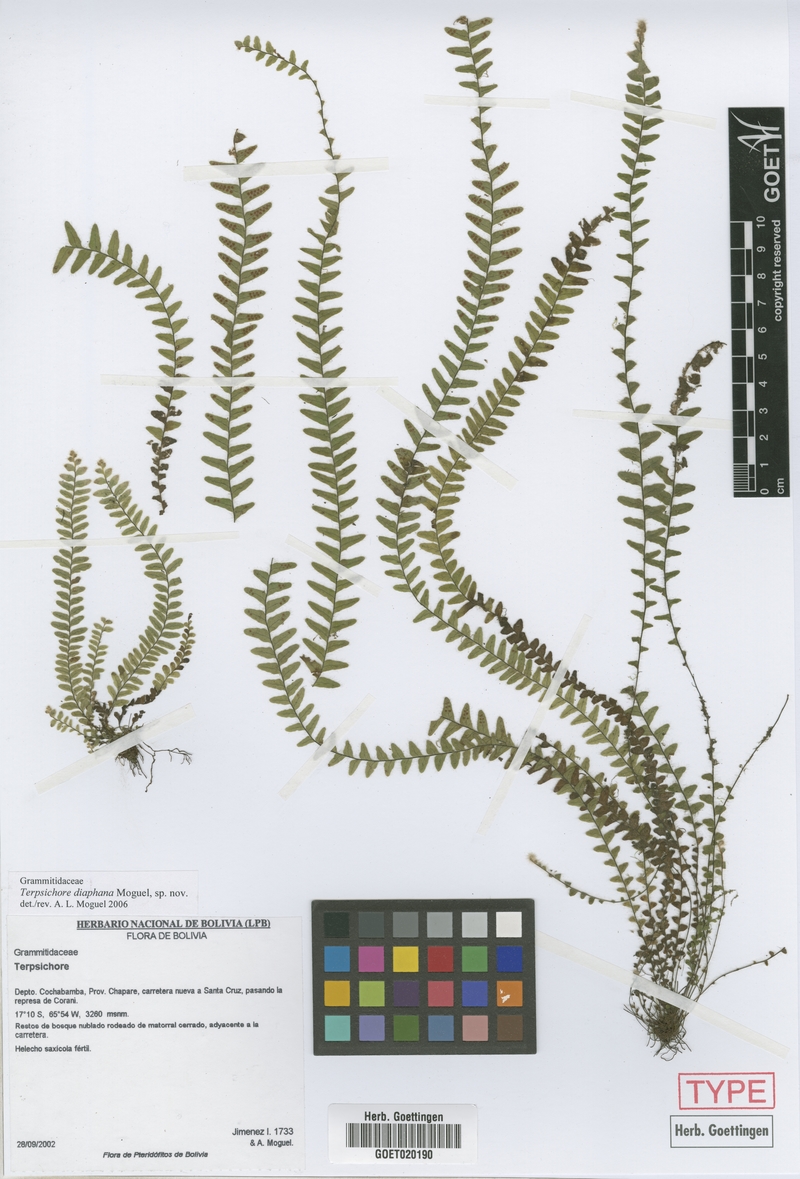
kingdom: Plantae
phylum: Tracheophyta
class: Polypodiopsida
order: Polypodiales
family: Polypodiaceae
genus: Alansmia
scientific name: Alansmia diaphana
